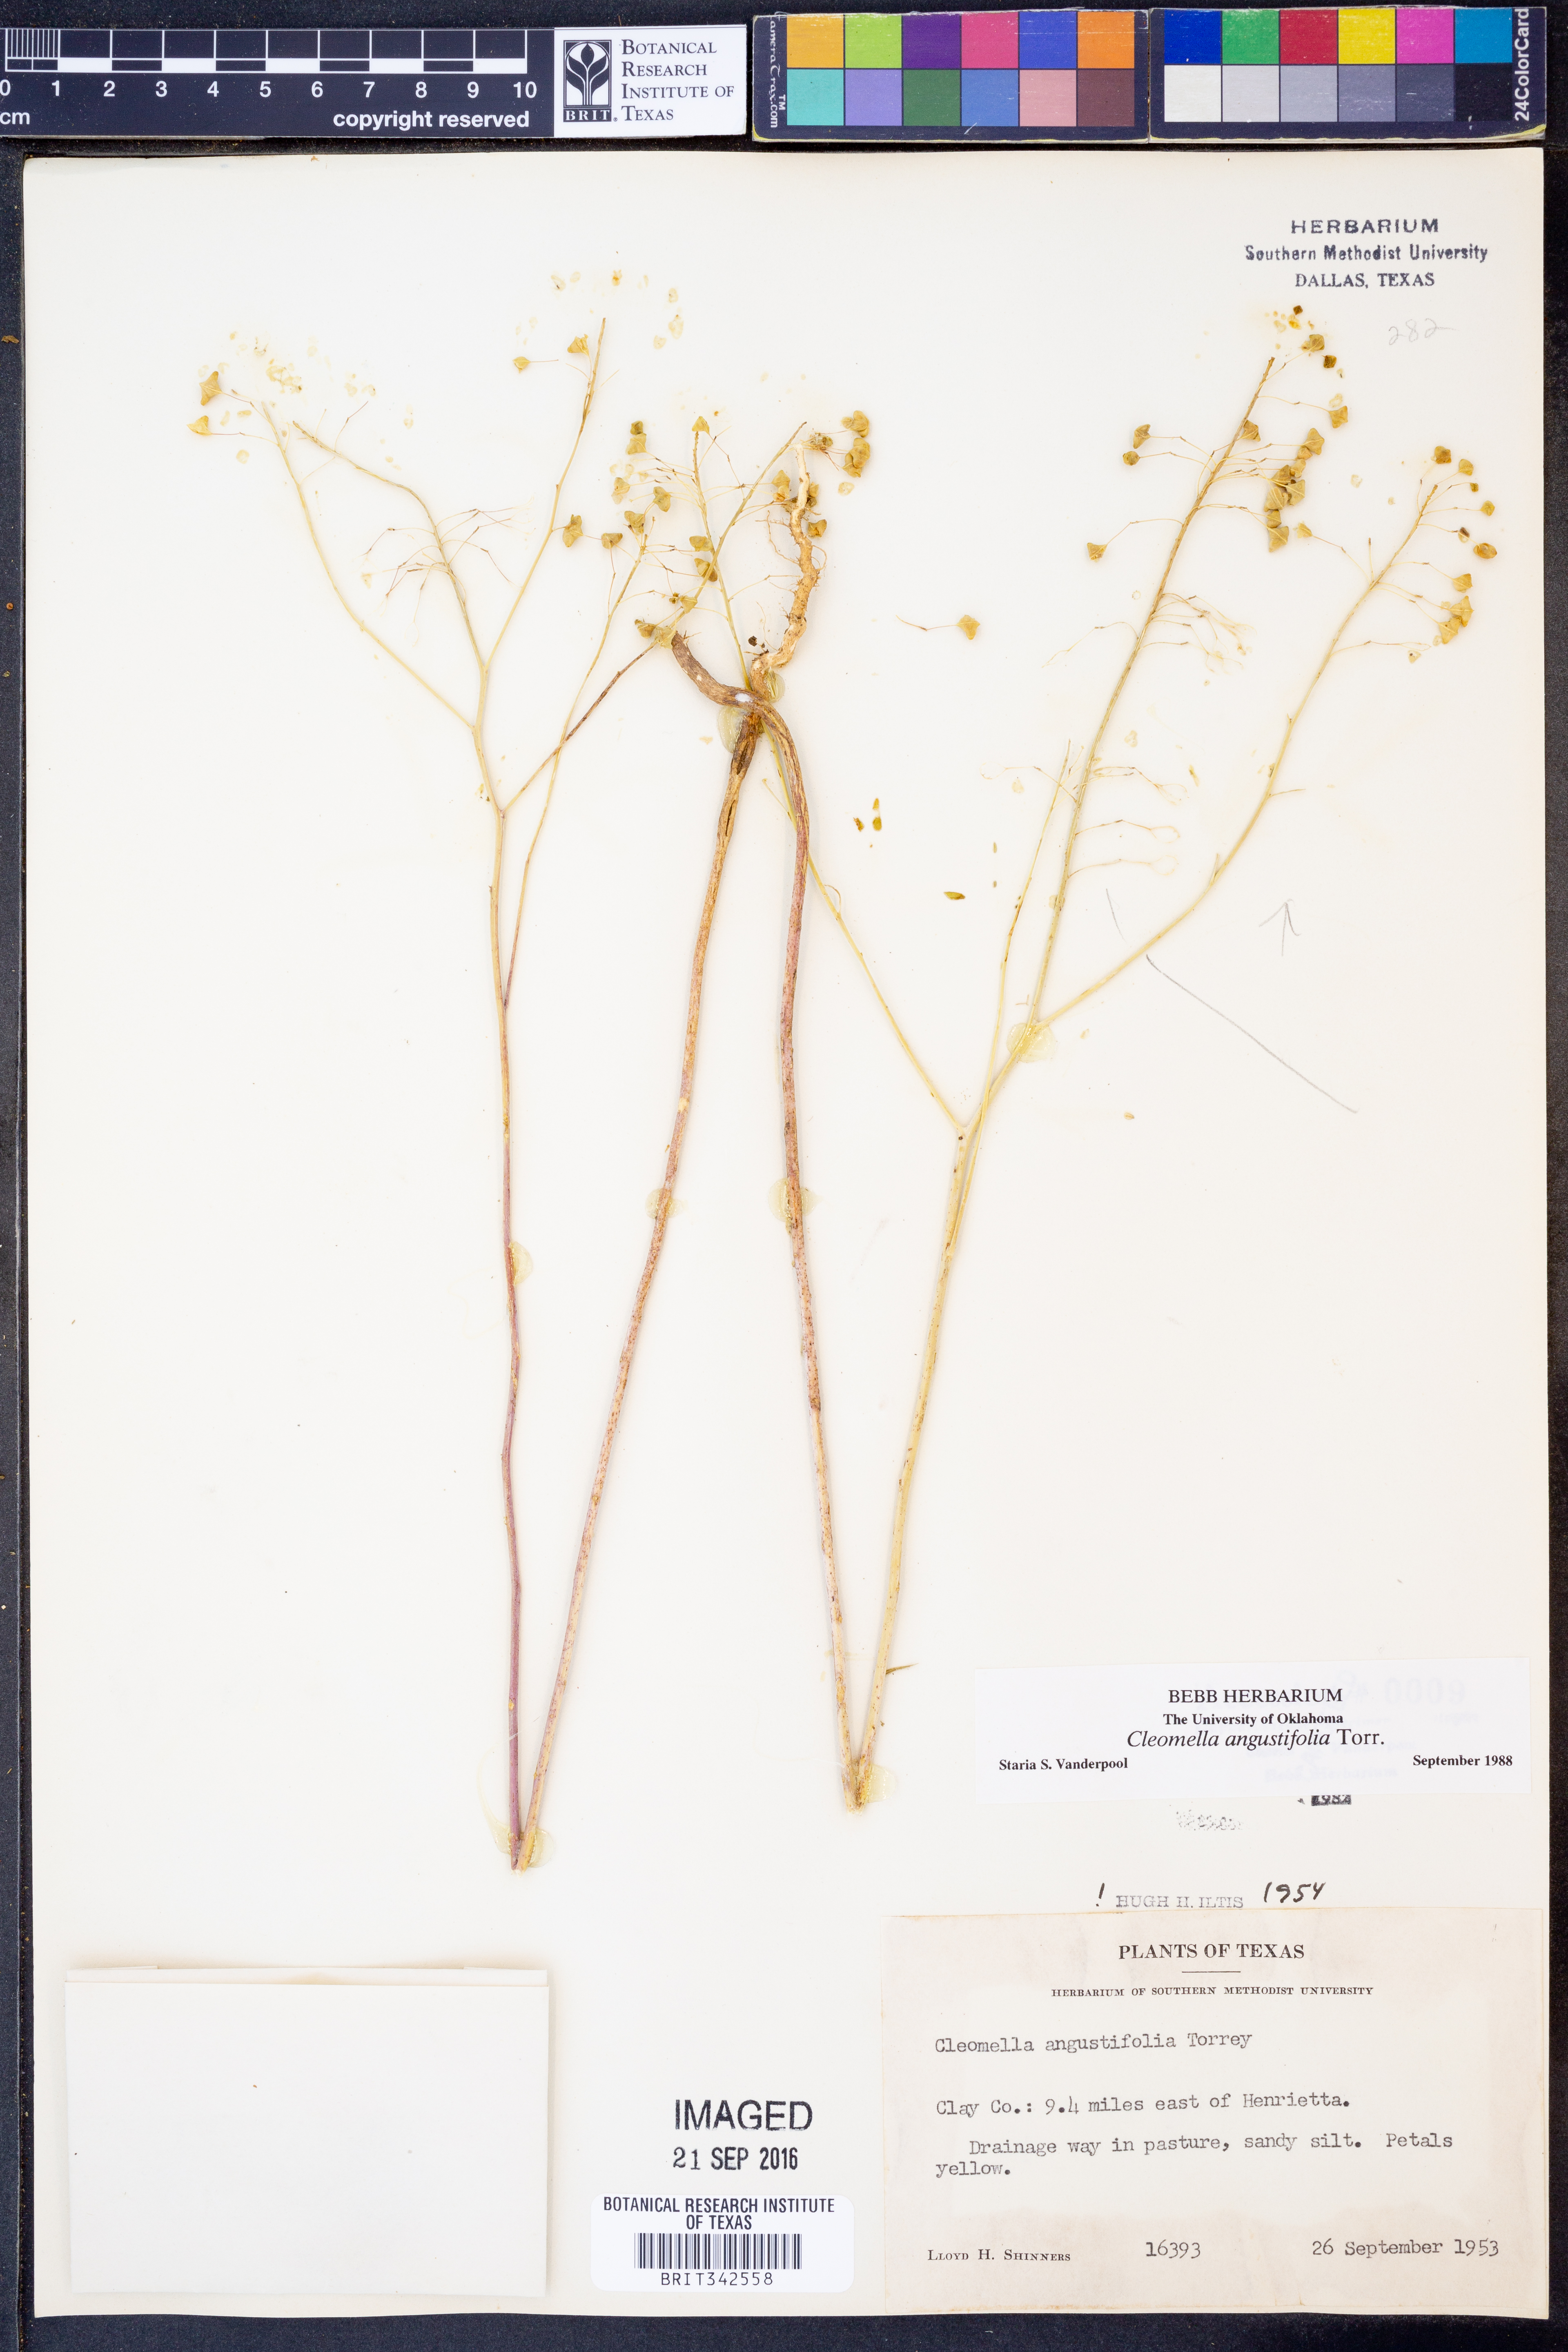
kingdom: Plantae
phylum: Tracheophyta
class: Magnoliopsida
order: Brassicales
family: Cleomaceae
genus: Cleomella
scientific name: Cleomella angustifolia
